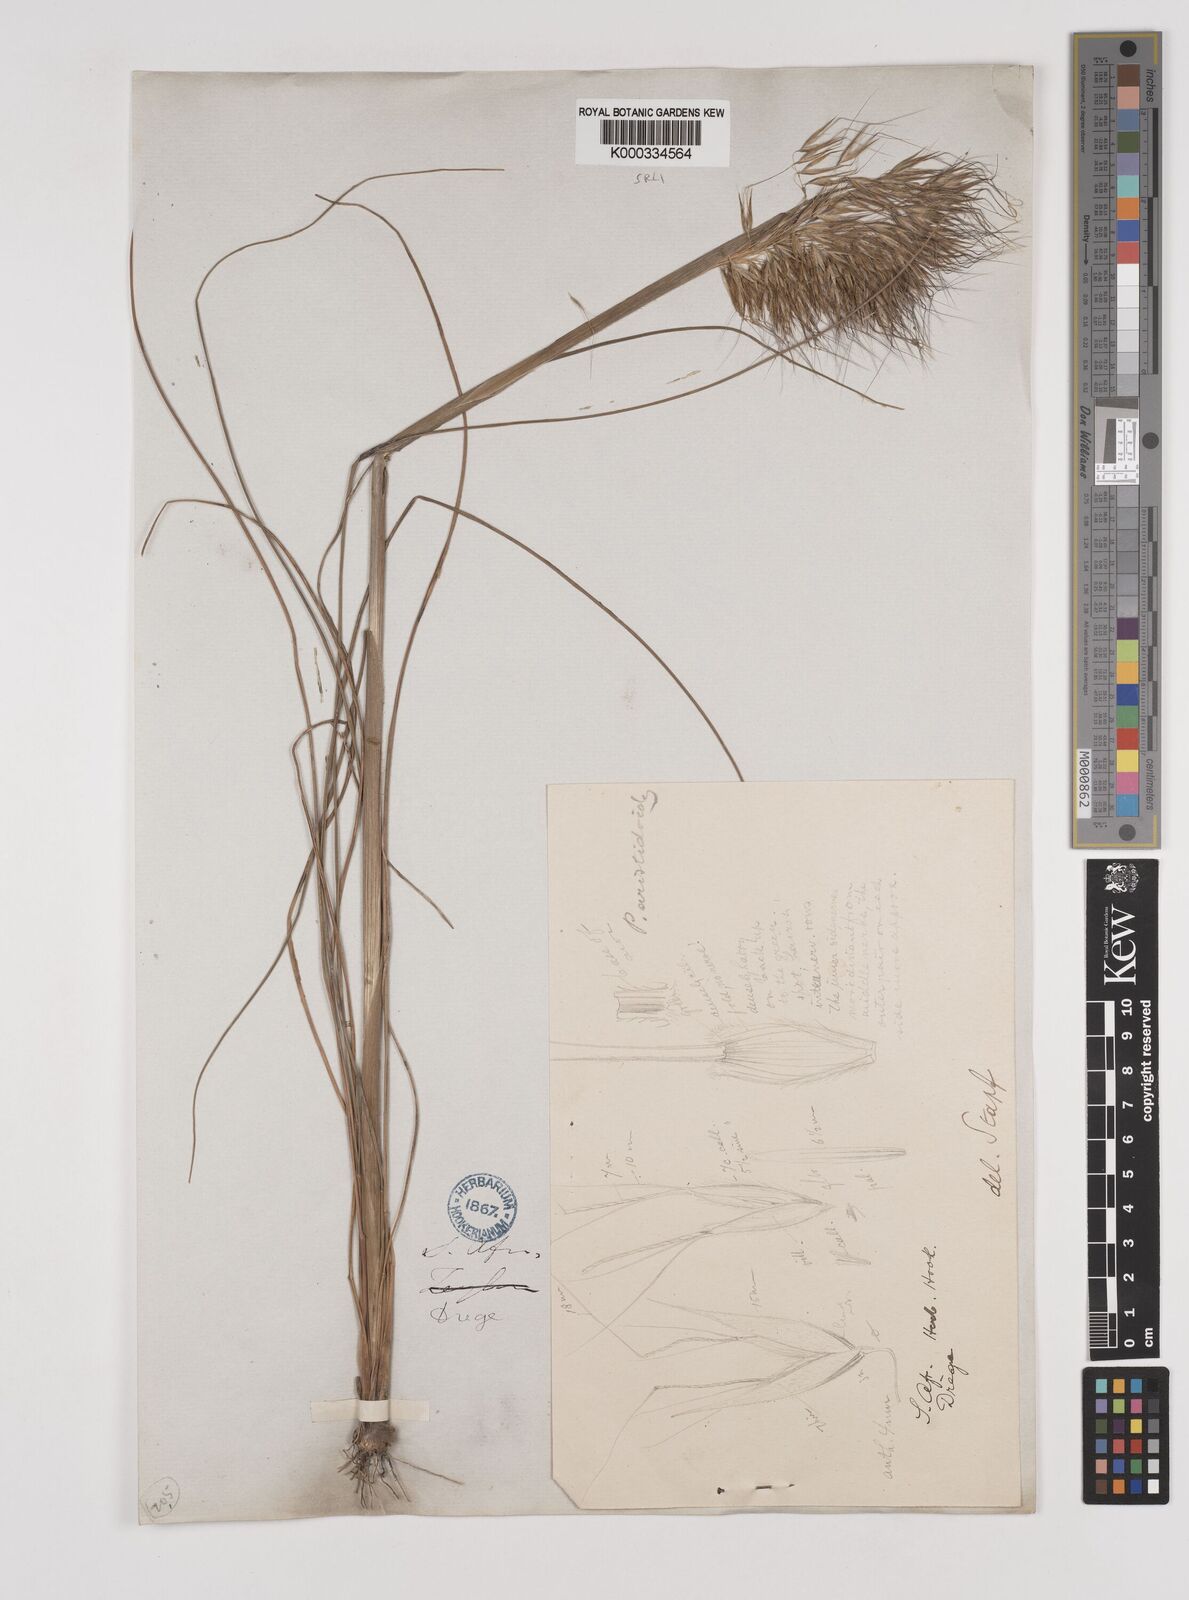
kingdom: Plantae
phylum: Tracheophyta
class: Liliopsida
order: Poales
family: Poaceae
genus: Pentameris
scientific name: Pentameris aristidoides
